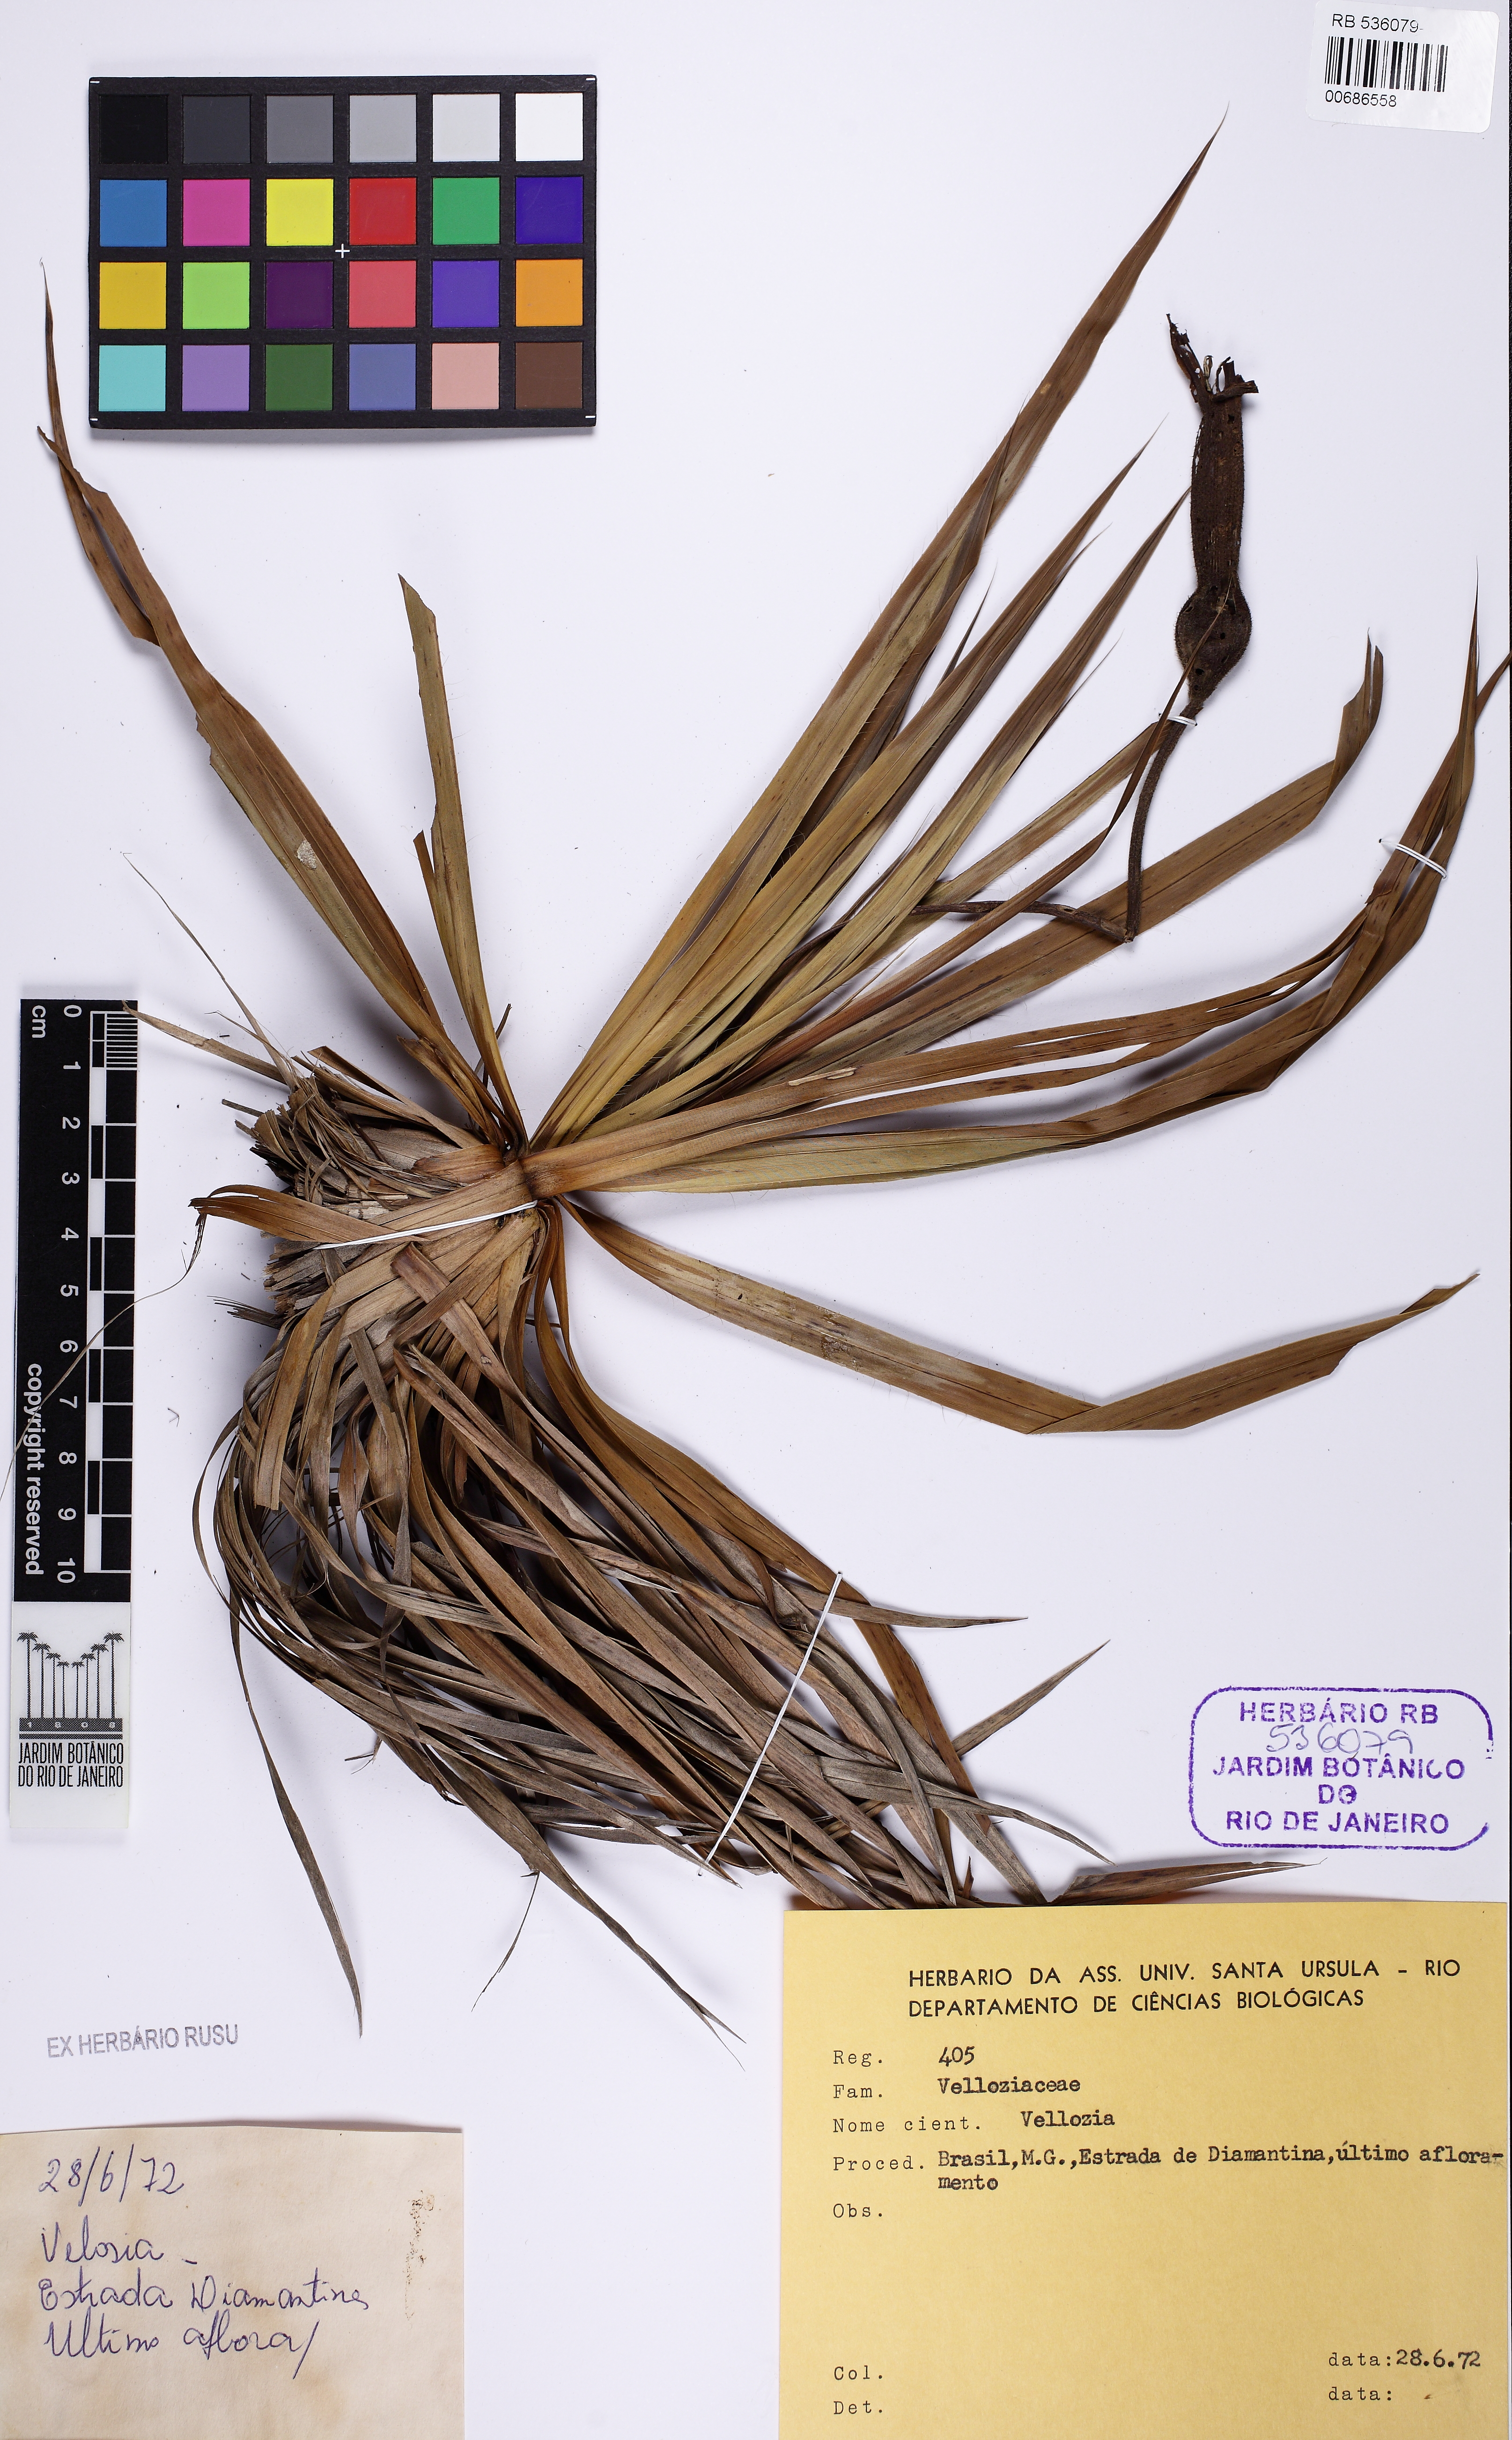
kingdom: Plantae
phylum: Tracheophyta
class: Liliopsida
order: Pandanales
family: Velloziaceae
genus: Barbacenia
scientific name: Barbacenia
